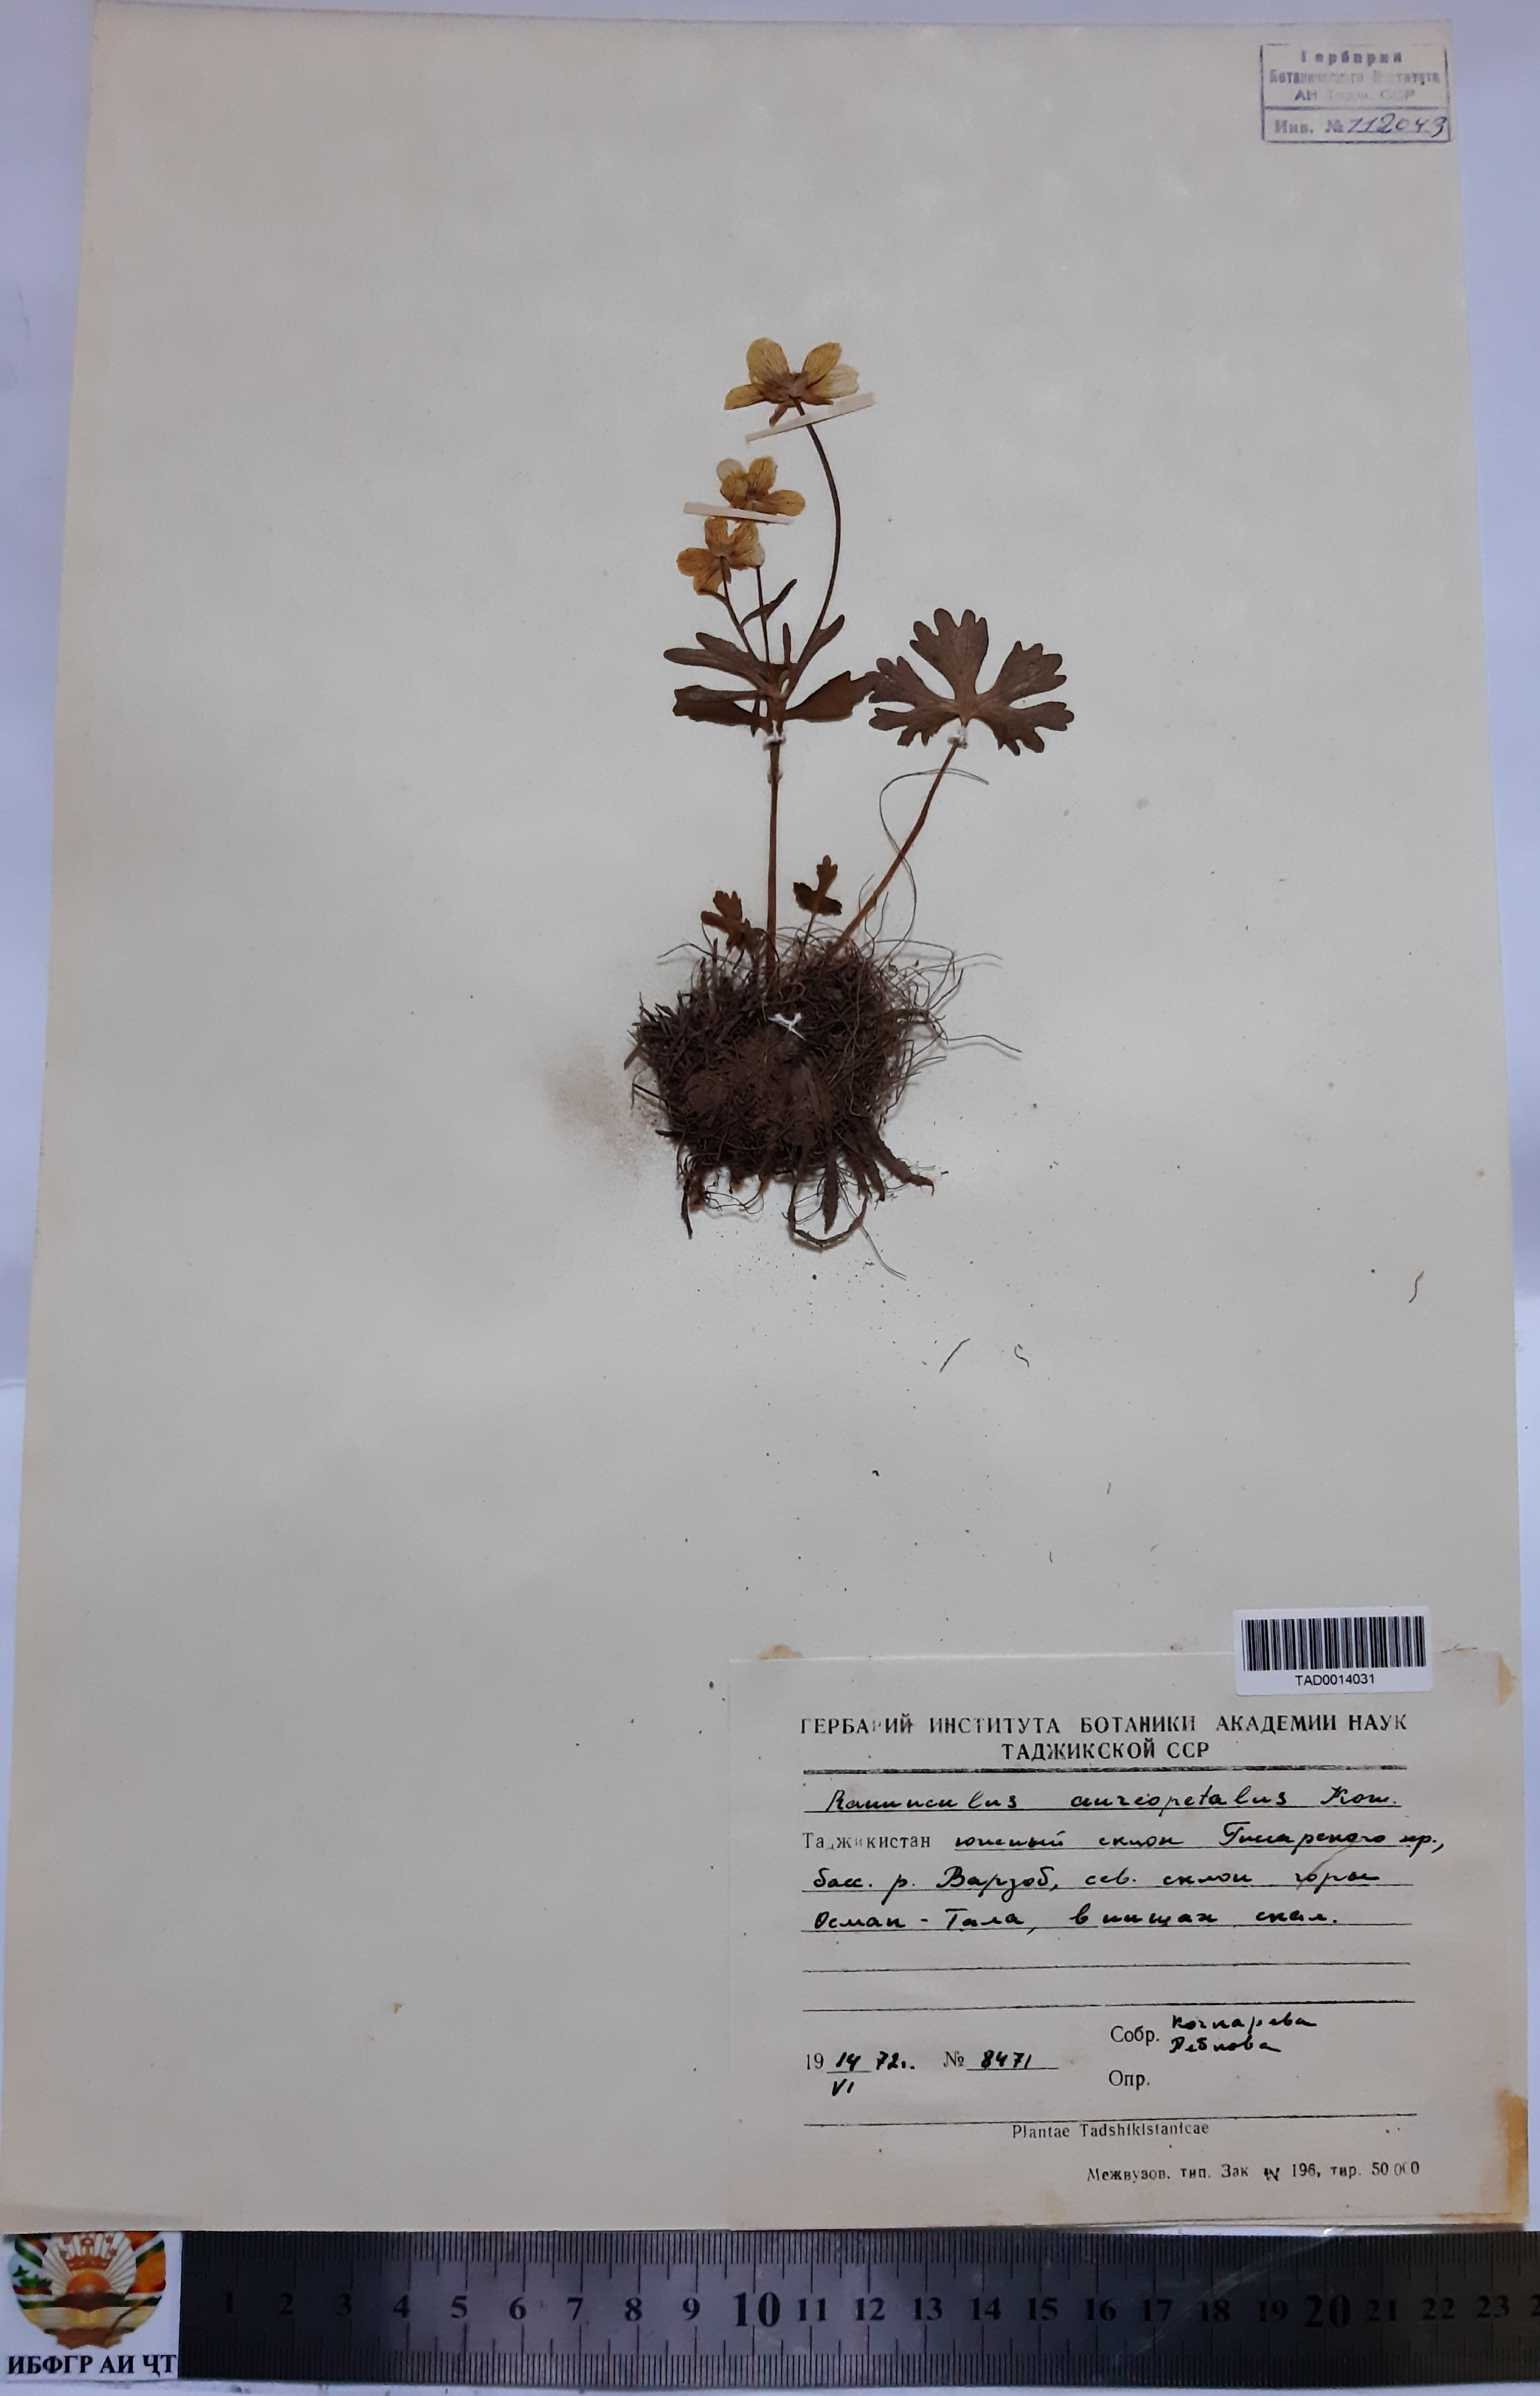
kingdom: Plantae
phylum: Tracheophyta
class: Magnoliopsida
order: Ranunculales
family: Ranunculaceae
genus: Ranunculus
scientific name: Ranunculus aureopetalus
